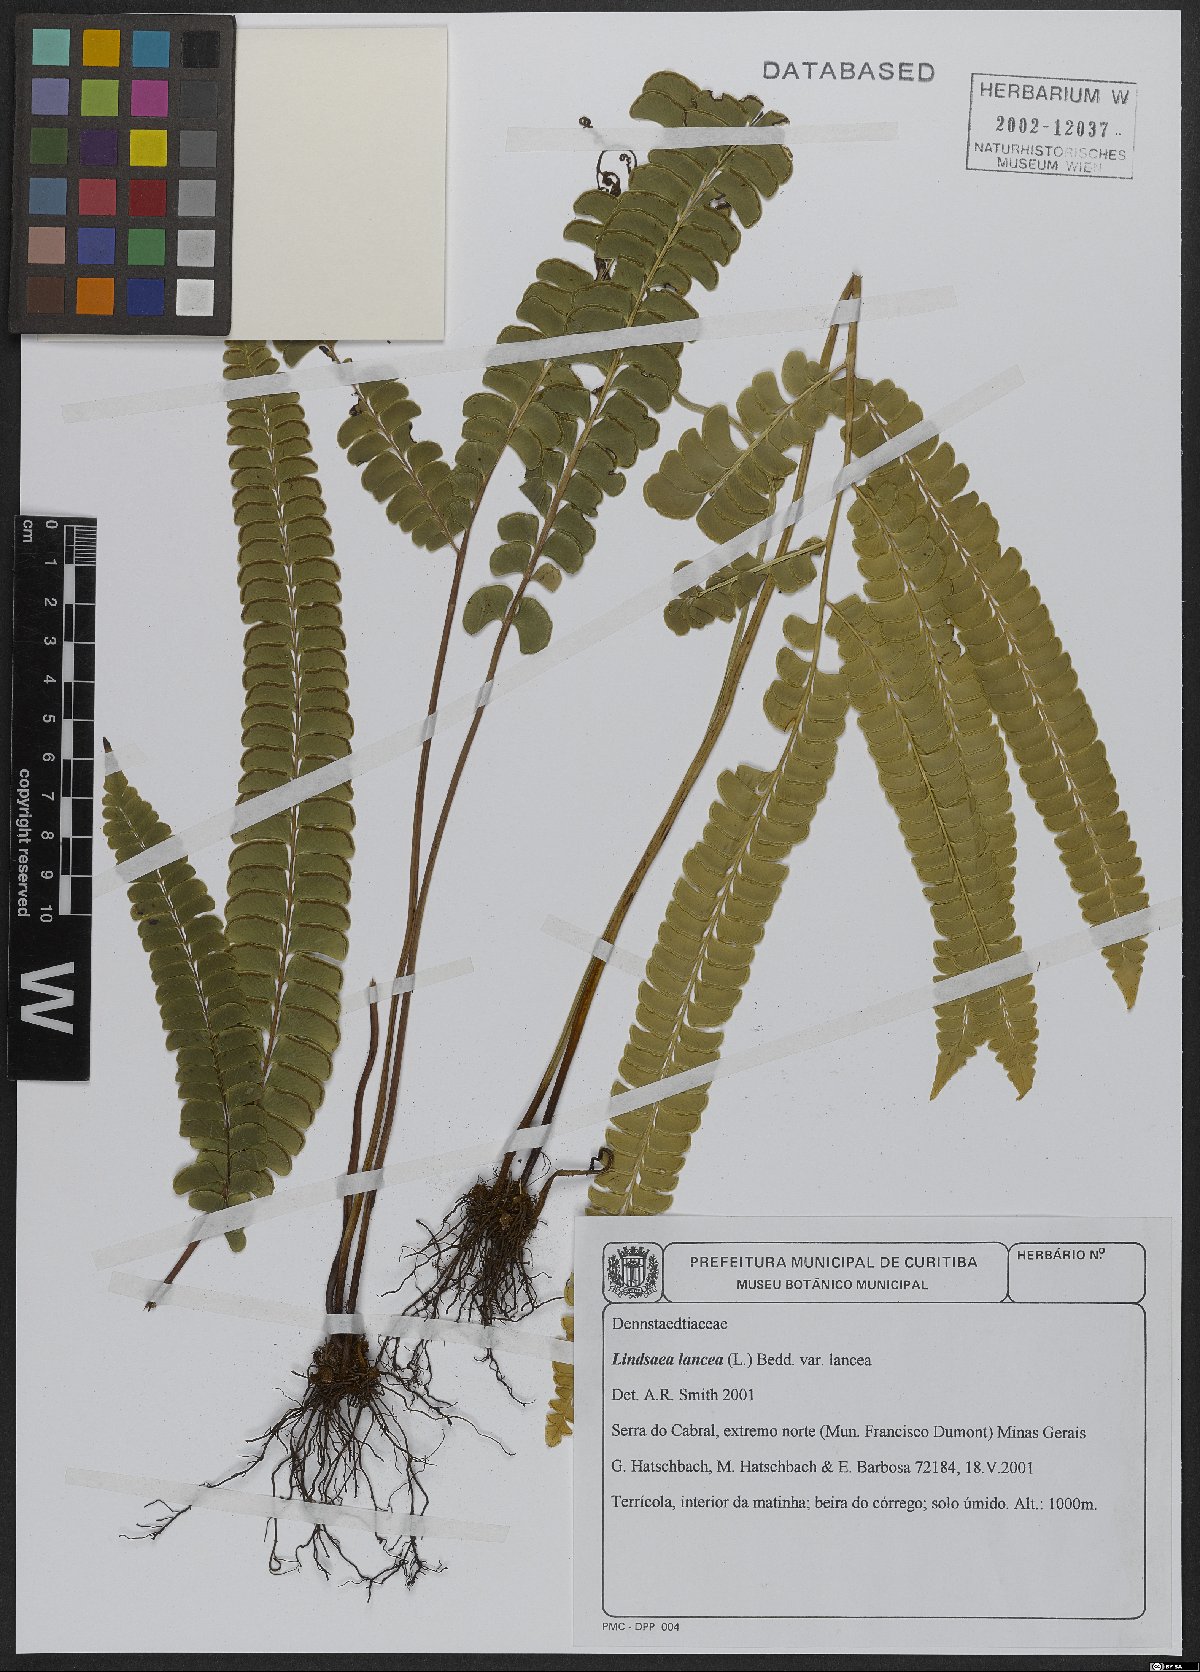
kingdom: Plantae
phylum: Tracheophyta
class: Polypodiopsida
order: Polypodiales
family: Lindsaeaceae
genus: Lindsaea
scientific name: Lindsaea lancea
